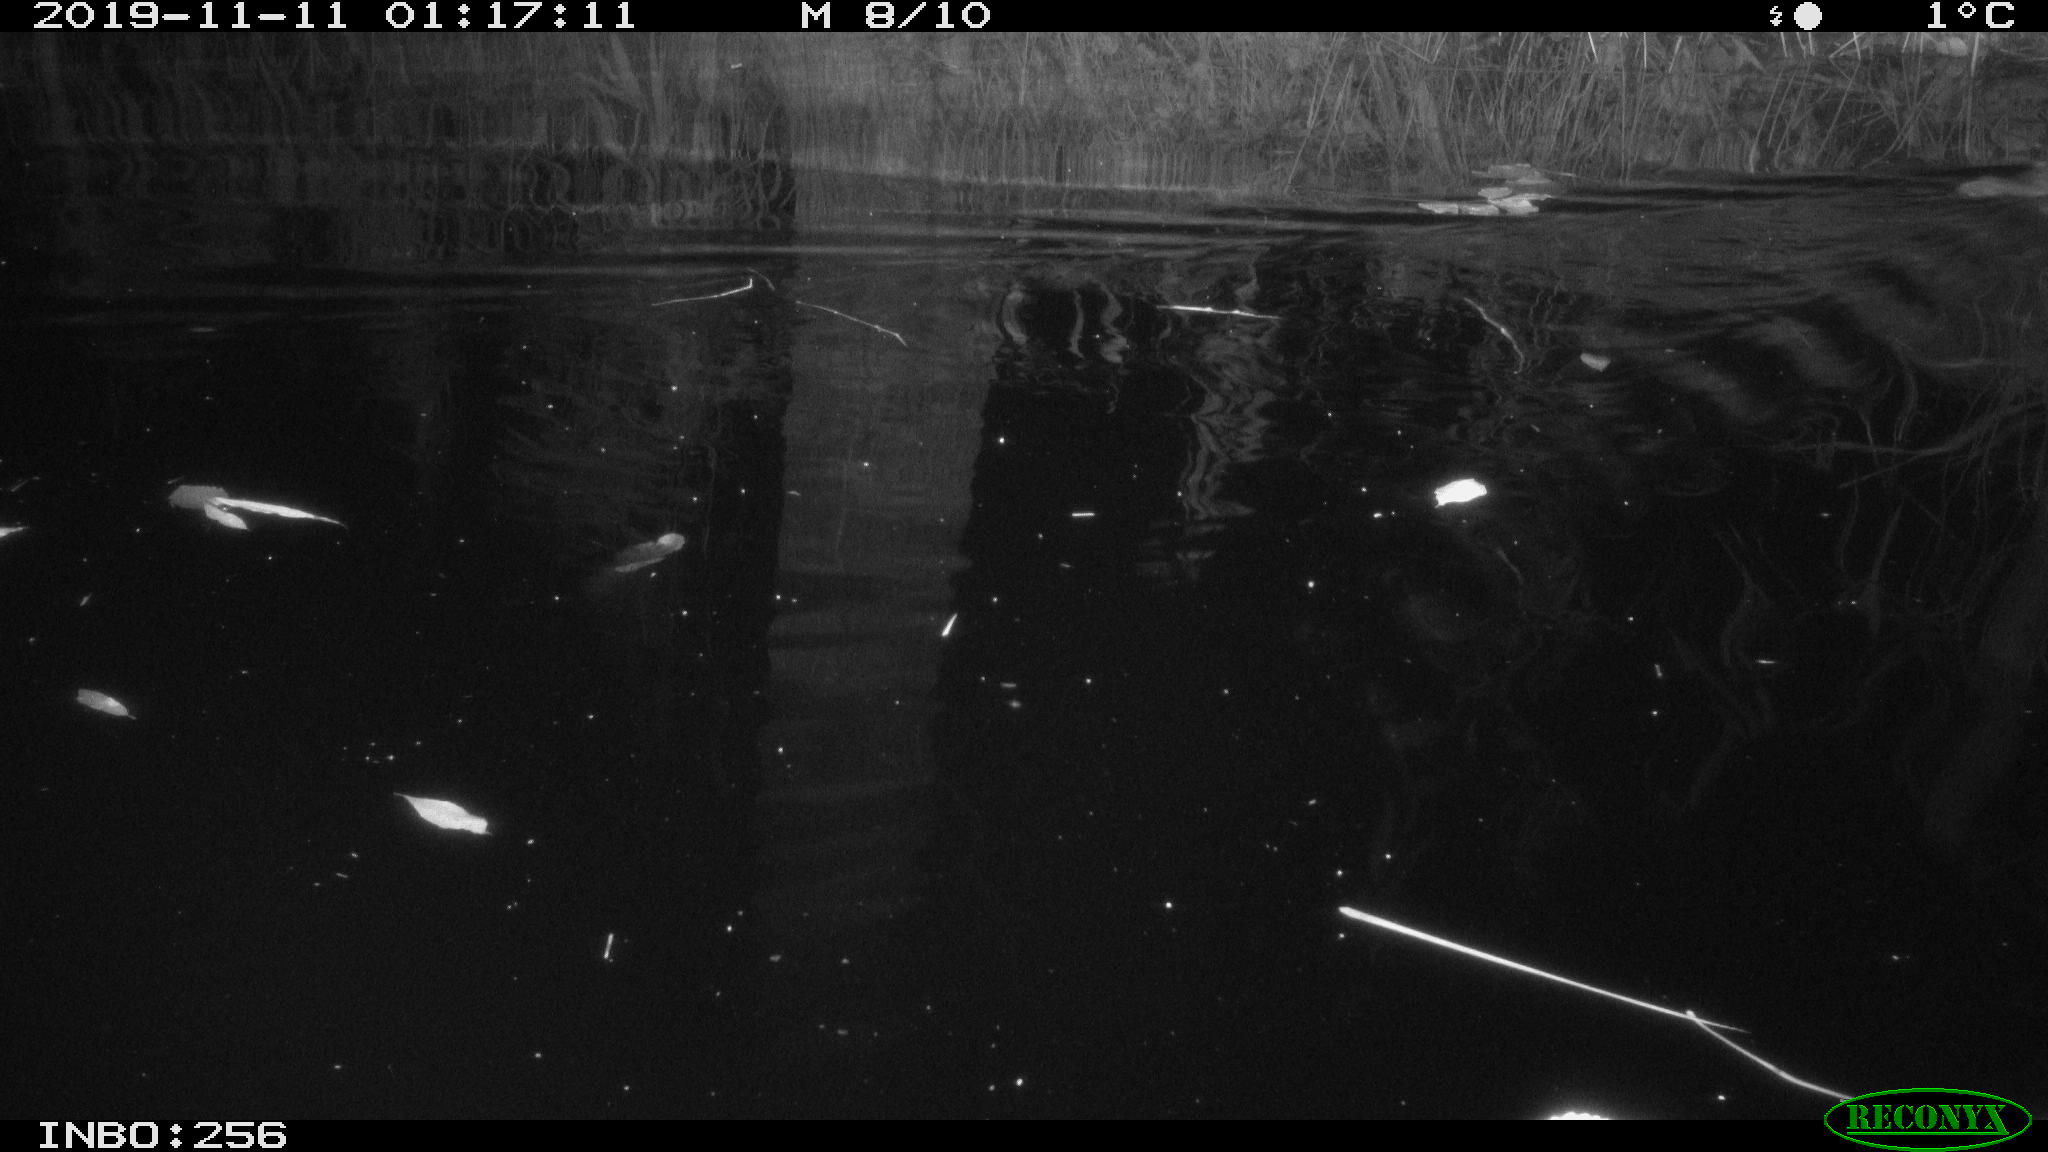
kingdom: Animalia
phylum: Chordata
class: Mammalia
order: Rodentia
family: Muridae
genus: Rattus
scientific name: Rattus norvegicus
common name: Brown rat
